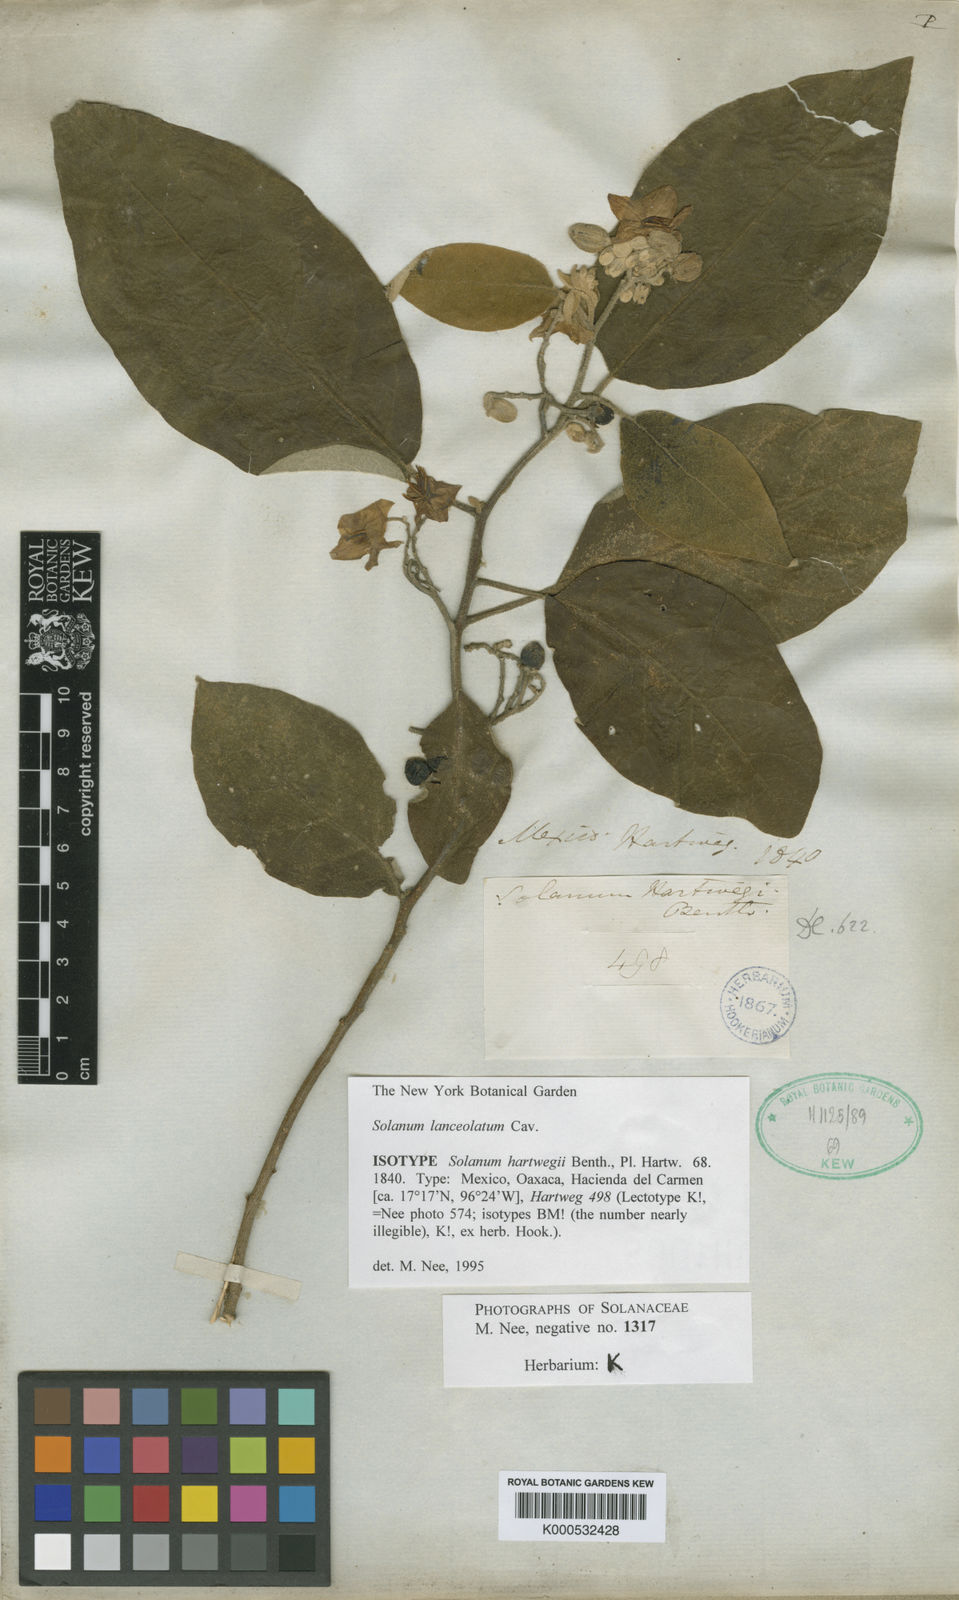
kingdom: Plantae
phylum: Tracheophyta
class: Magnoliopsida
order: Solanales
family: Solanaceae
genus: Solanum
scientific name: Solanum lanceolatum
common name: Orangeberry nightshade
